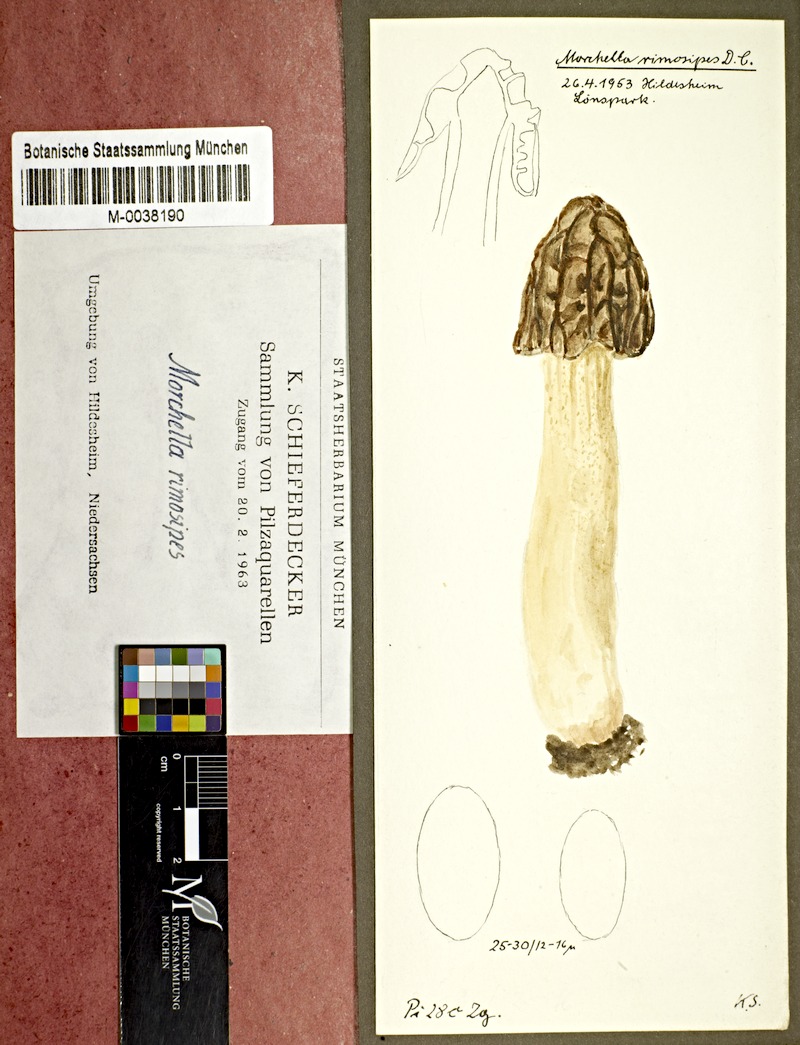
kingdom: Fungi
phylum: Ascomycota
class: Pezizomycetes
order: Pezizales
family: Morchellaceae
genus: Morchella
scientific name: Morchella semilibera
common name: Semifree morel
